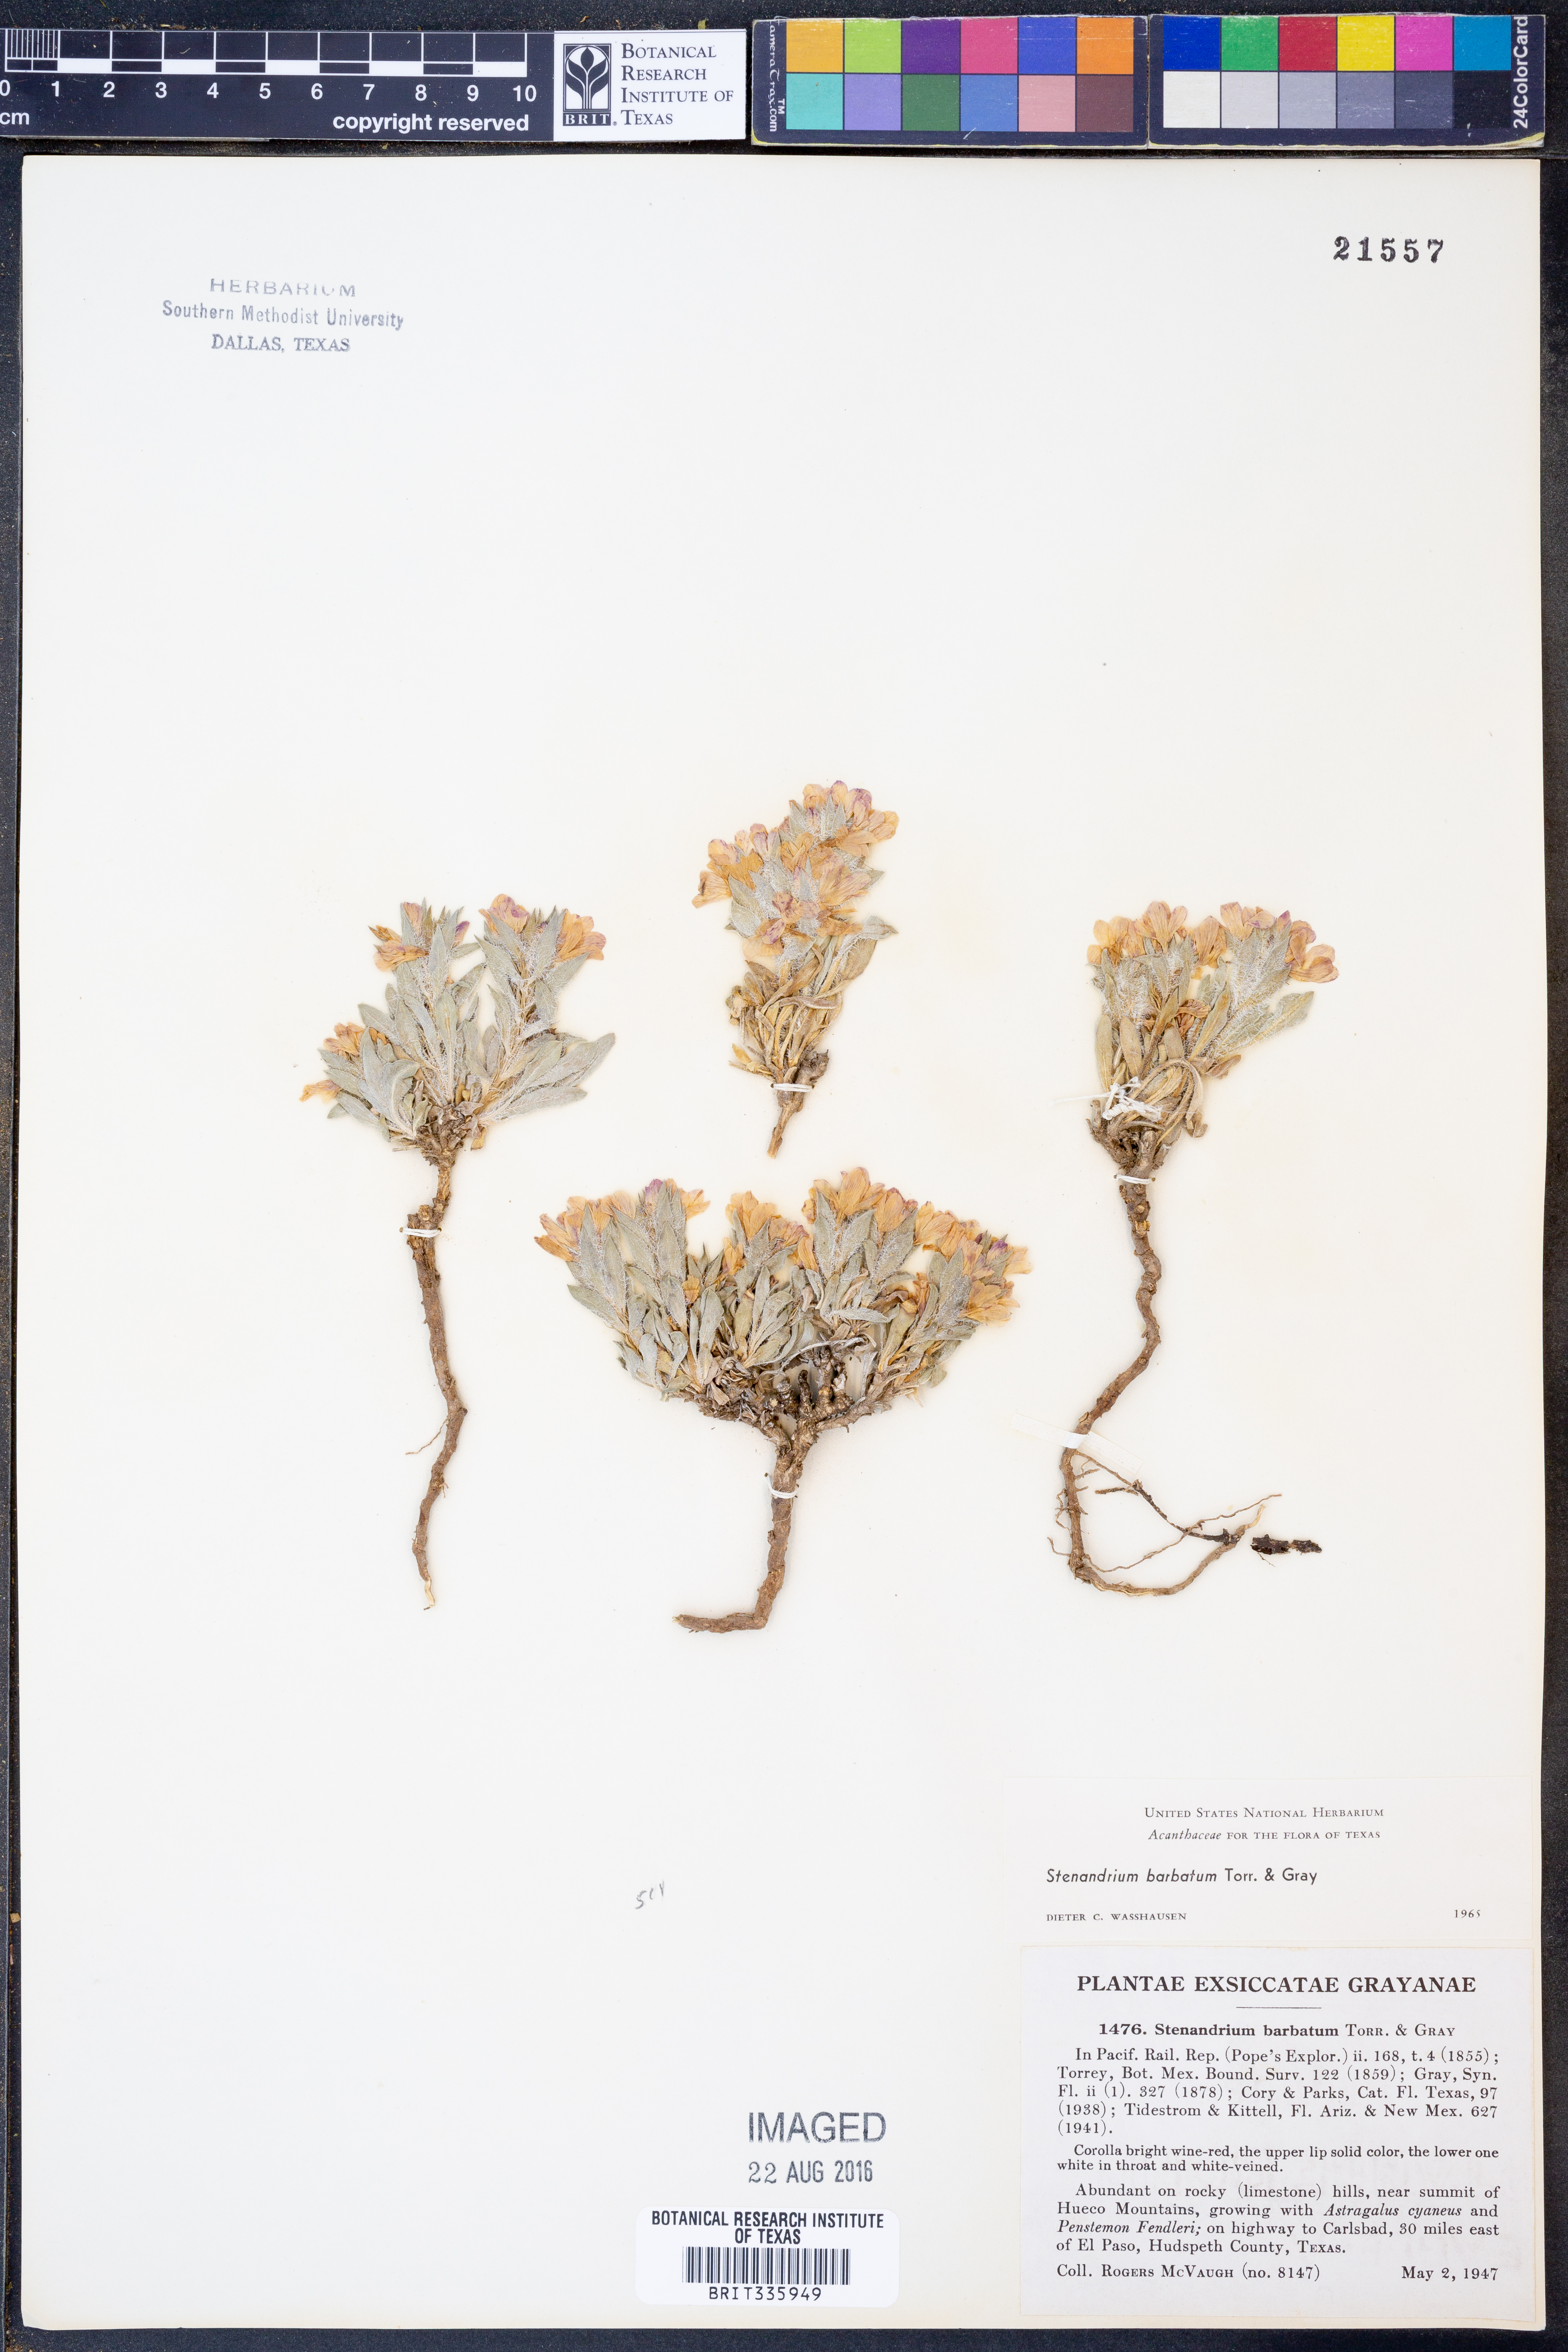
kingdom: Plantae
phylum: Tracheophyta
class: Magnoliopsida
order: Lamiales
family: Acanthaceae
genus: Stenandrium
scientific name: Stenandrium barbatum
